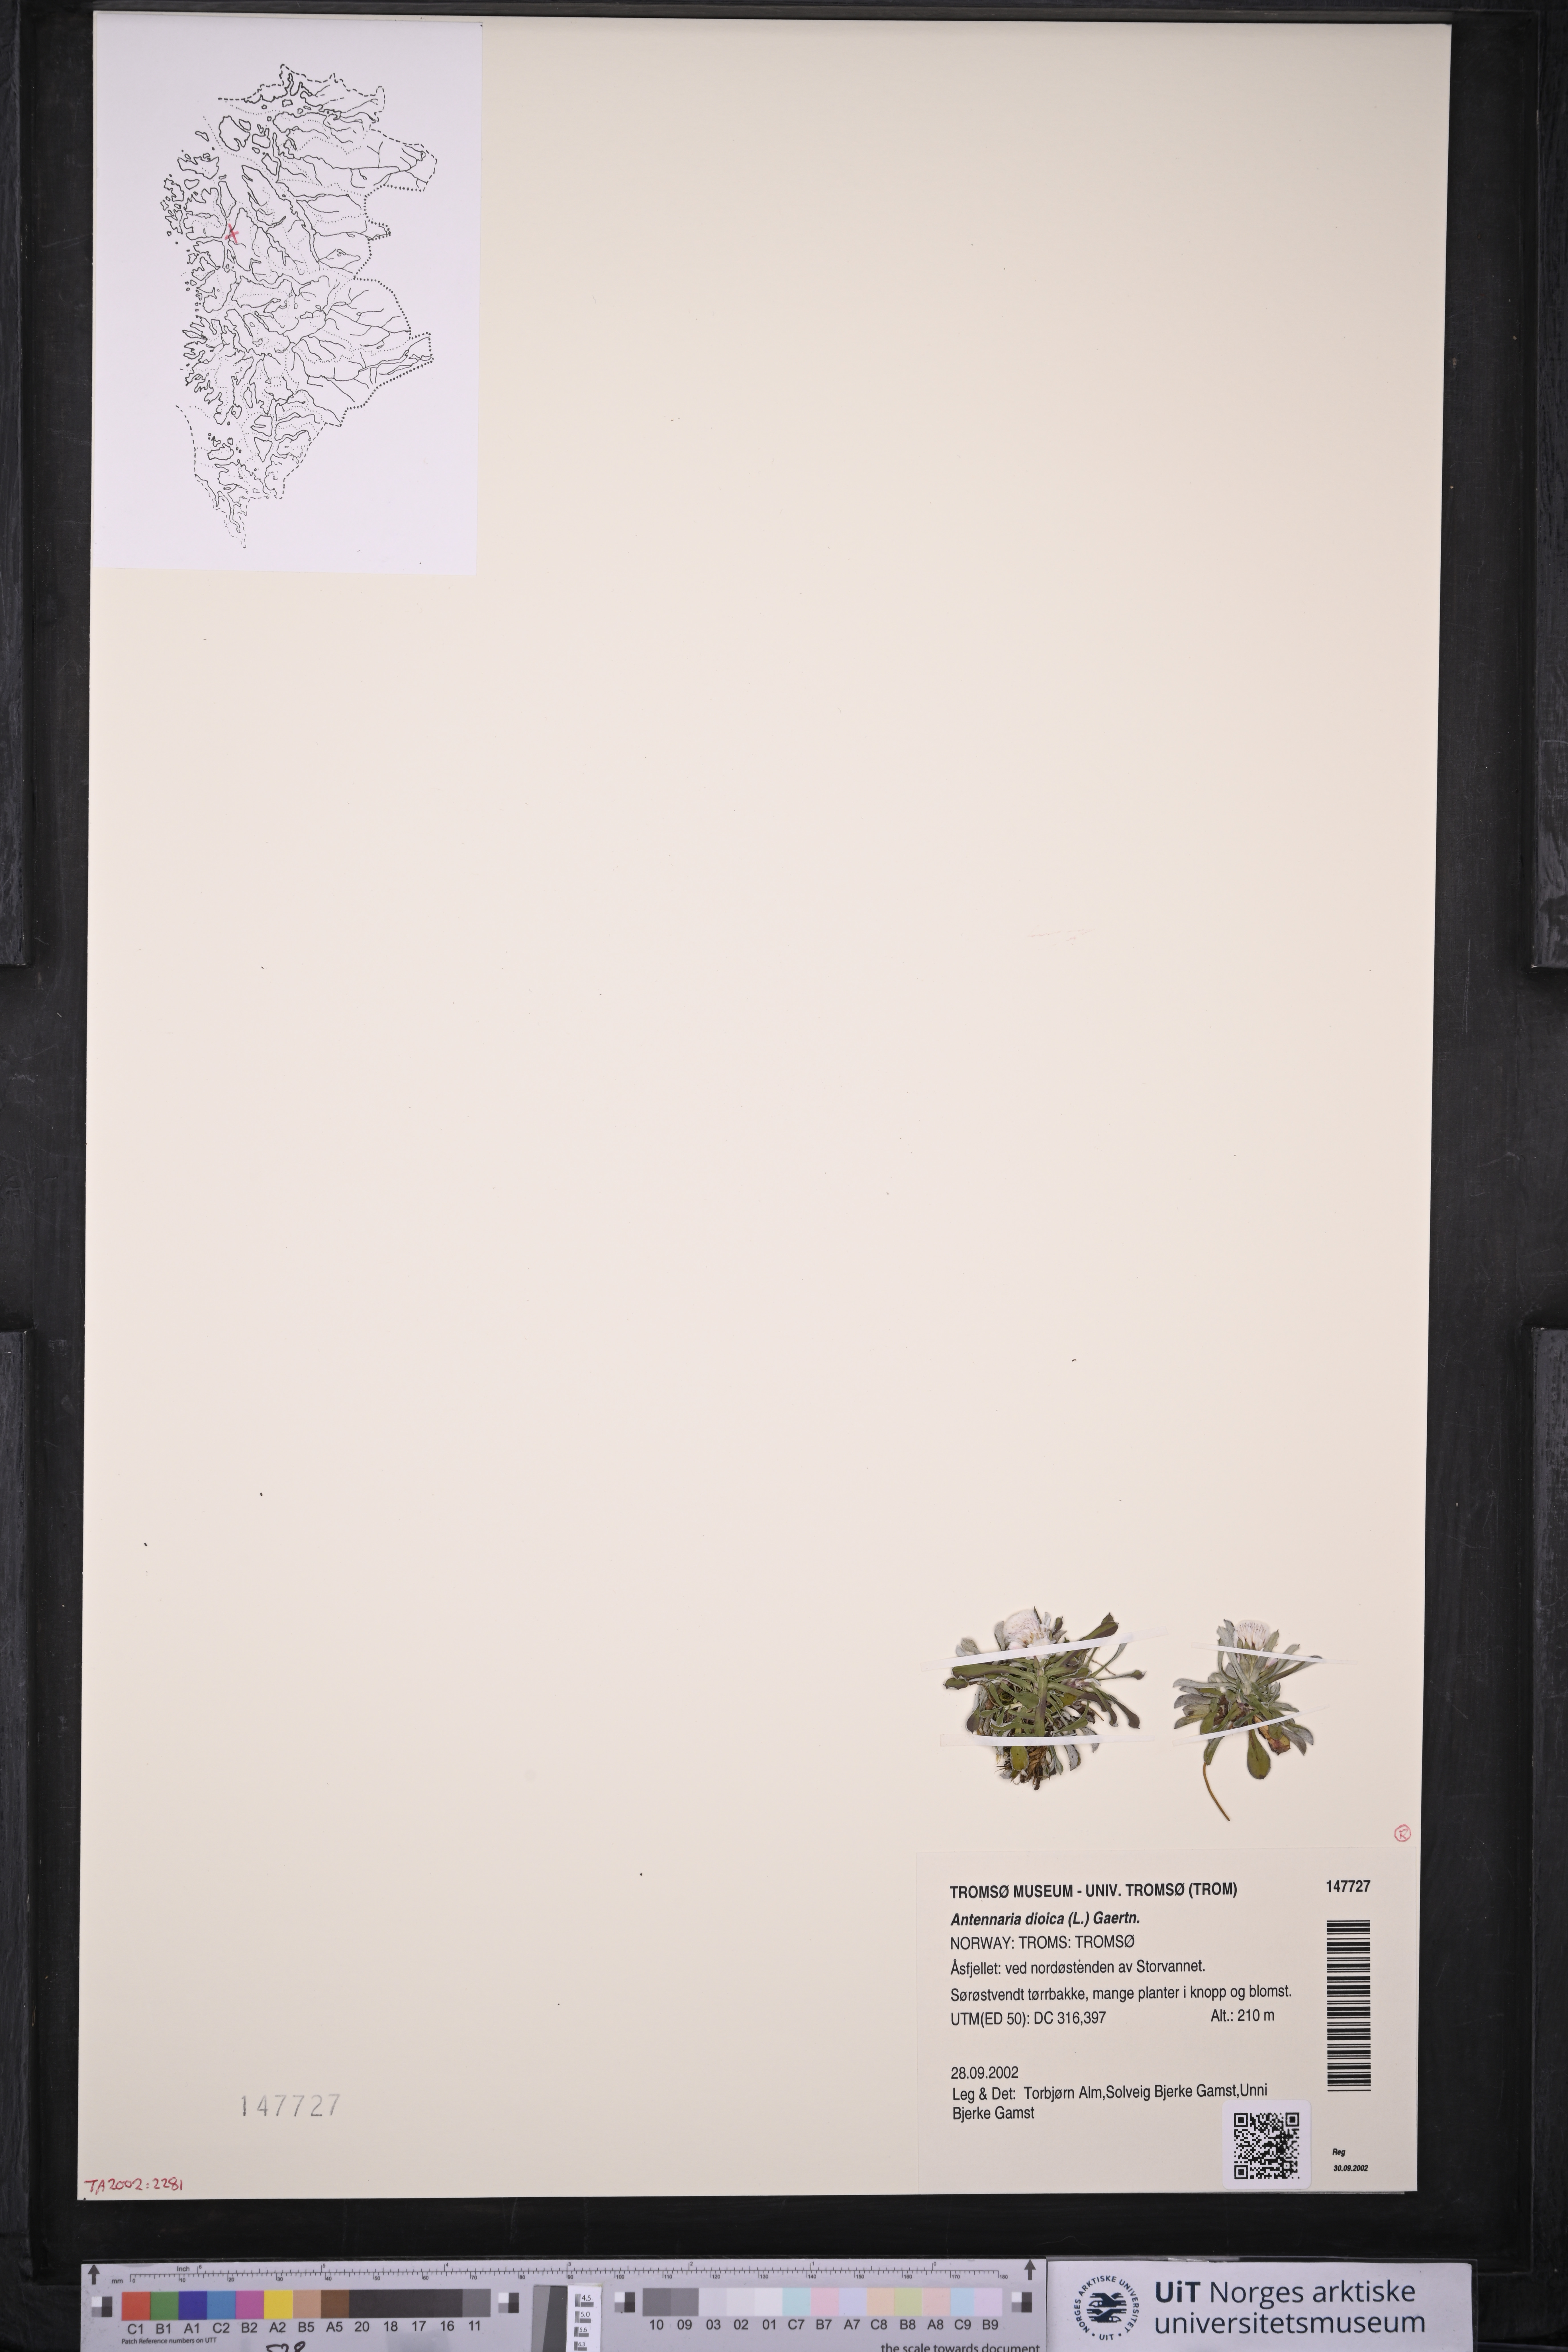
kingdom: Plantae
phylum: Tracheophyta
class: Magnoliopsida
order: Asterales
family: Asteraceae
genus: Antennaria
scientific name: Antennaria dioica
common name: Mountain everlasting
